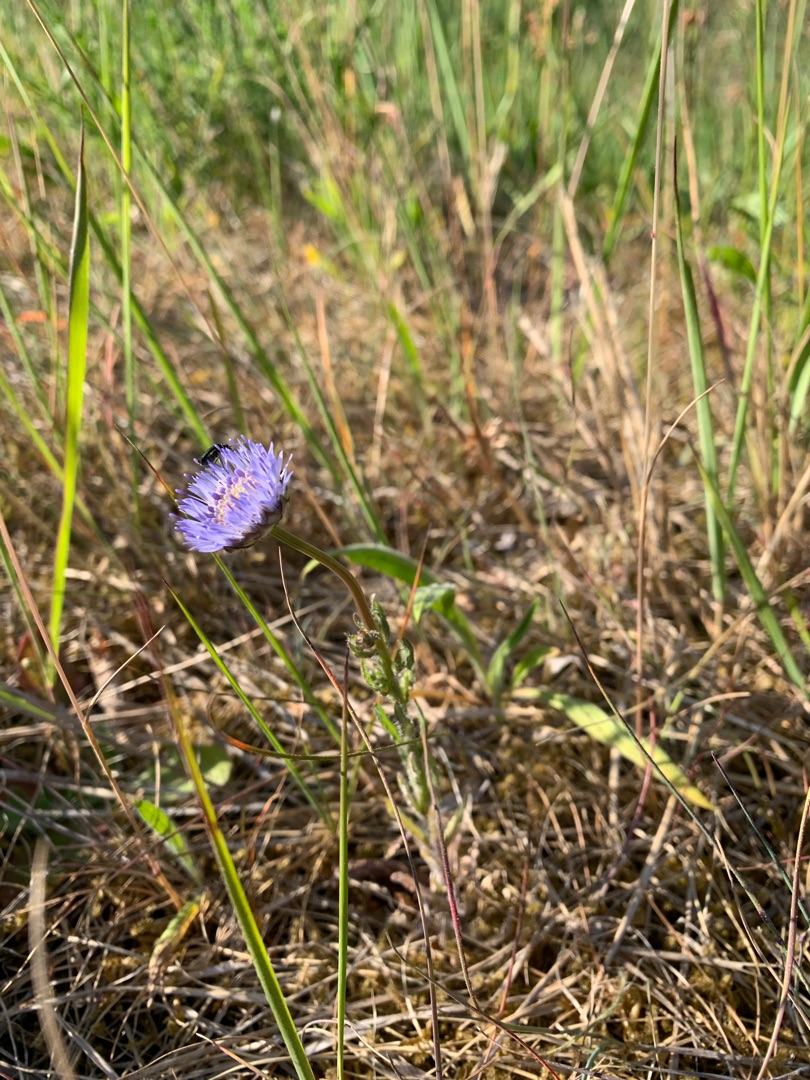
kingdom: Plantae
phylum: Tracheophyta
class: Magnoliopsida
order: Asterales
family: Campanulaceae
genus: Jasione
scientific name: Jasione montana
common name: Blåmunke
